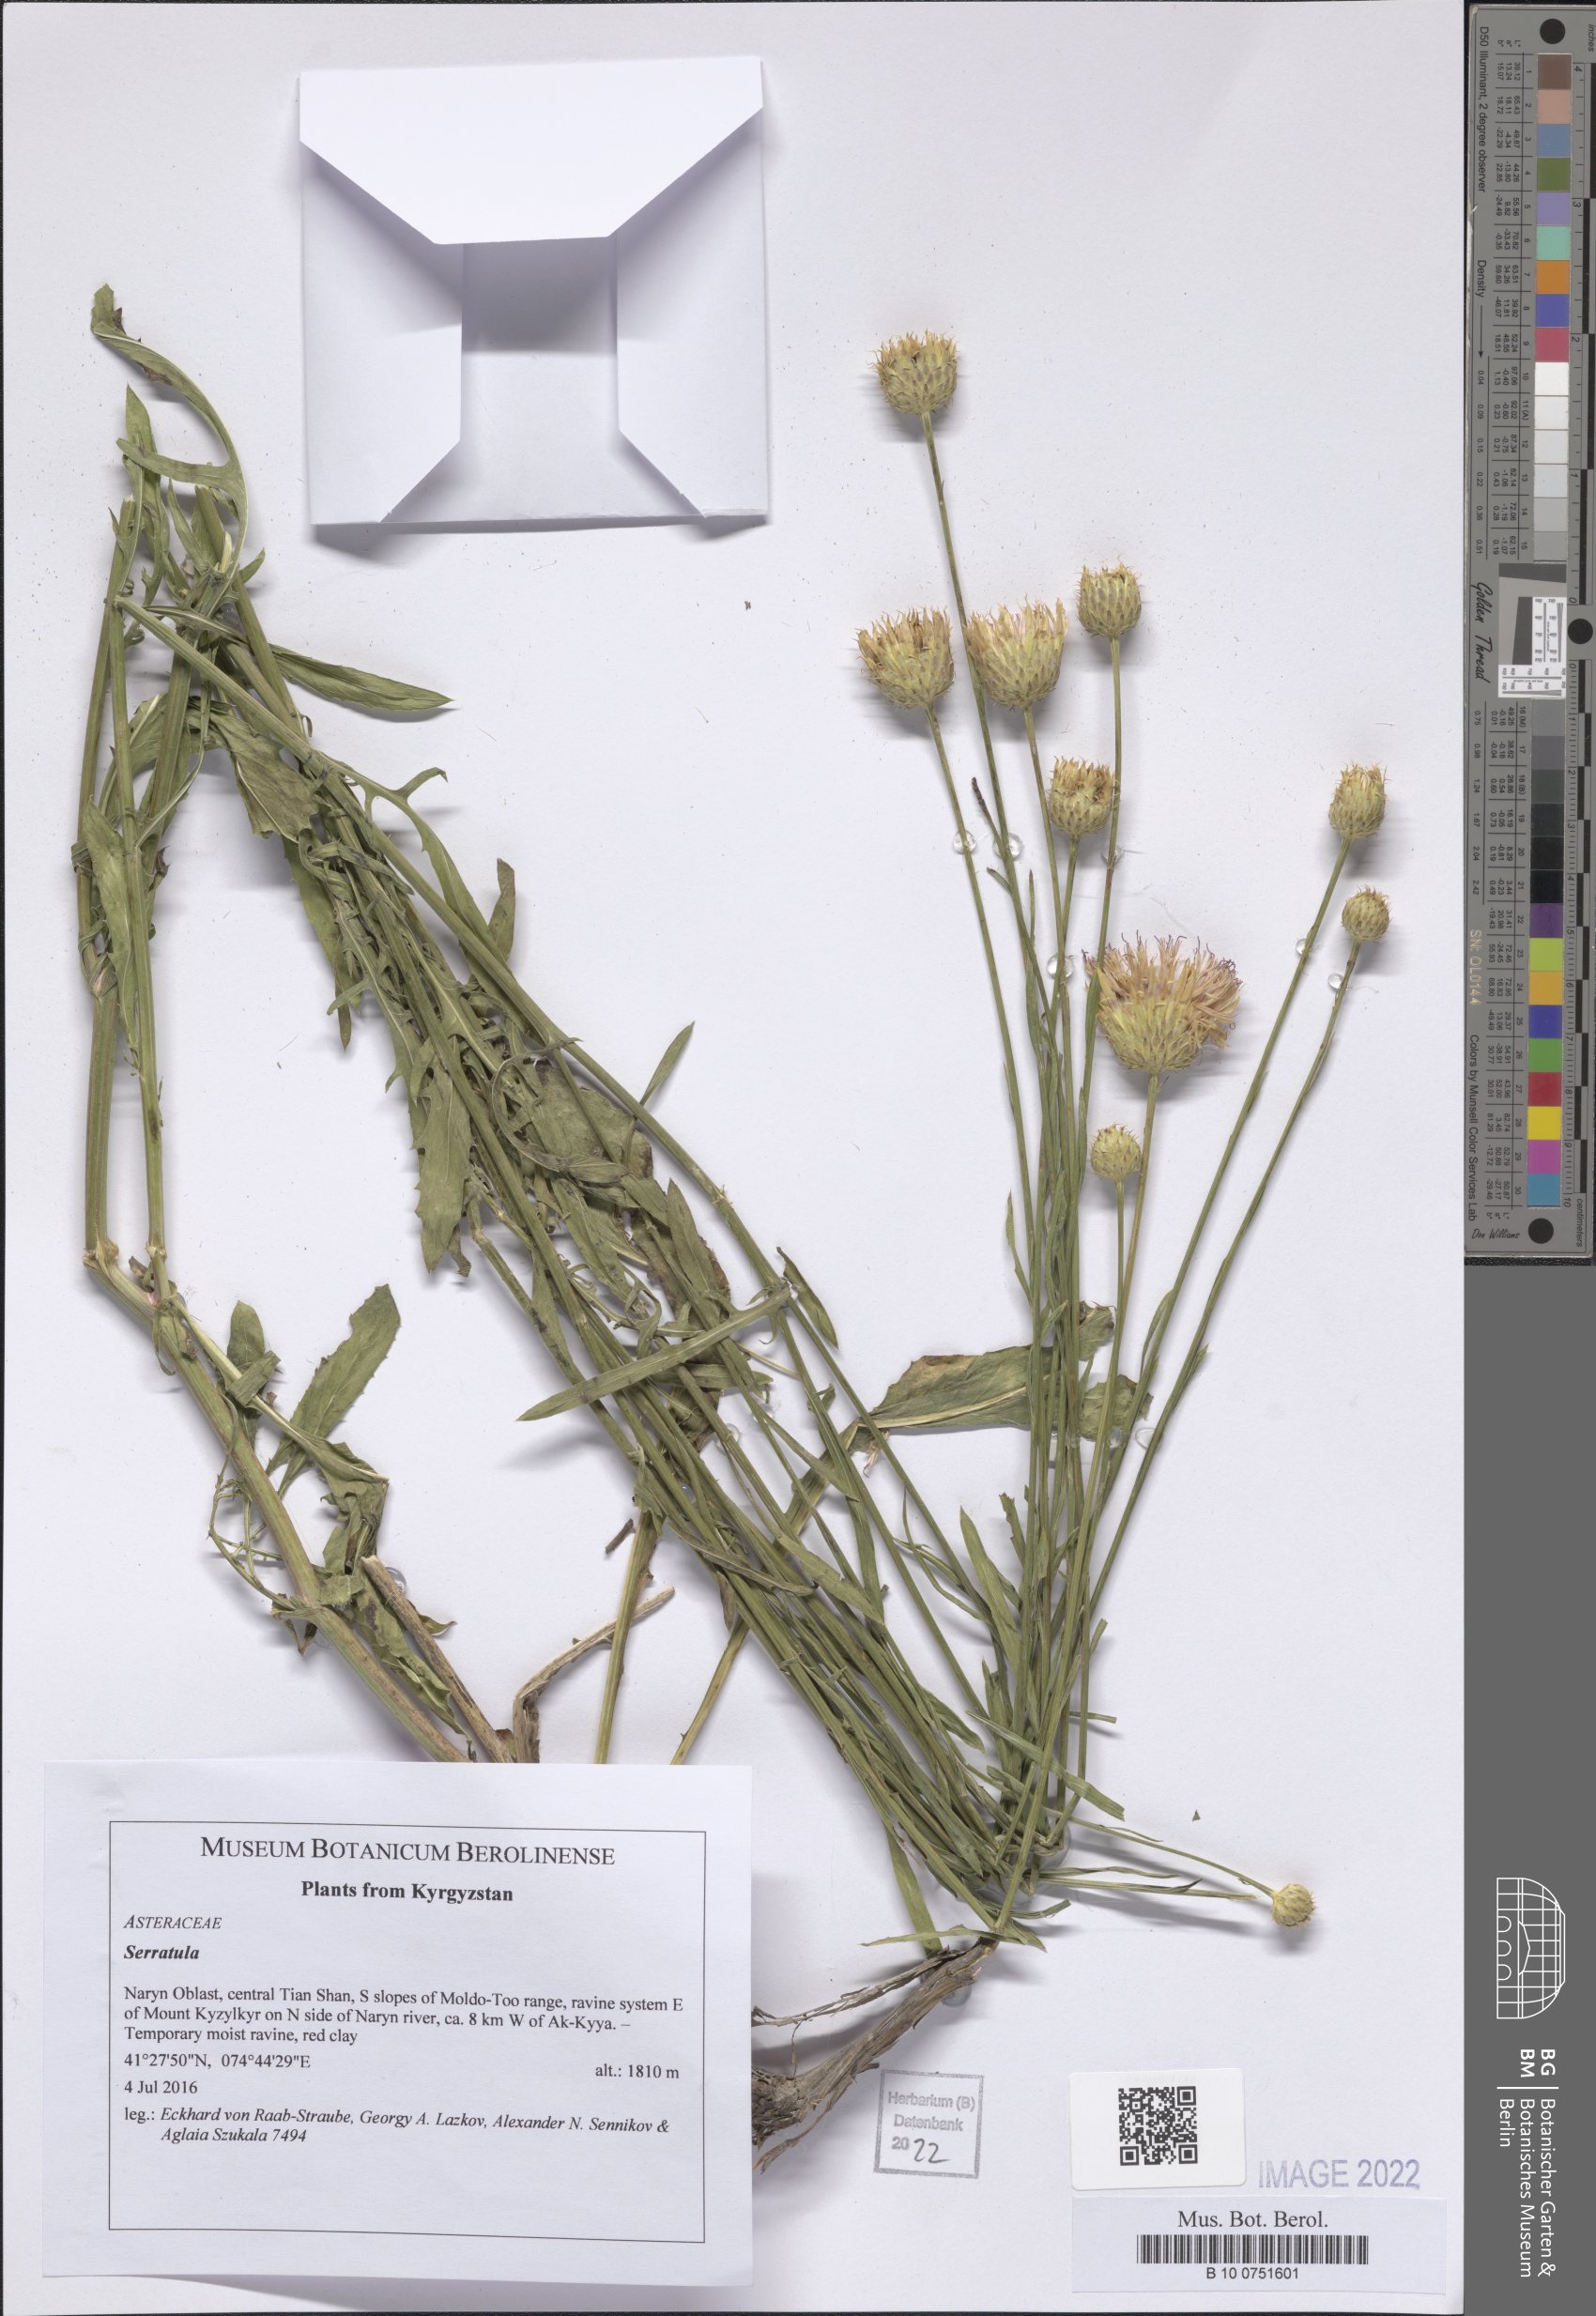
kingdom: Plantae
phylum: Tracheophyta
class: Magnoliopsida
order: Asterales
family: Asteraceae
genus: Serratula
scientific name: Serratula
